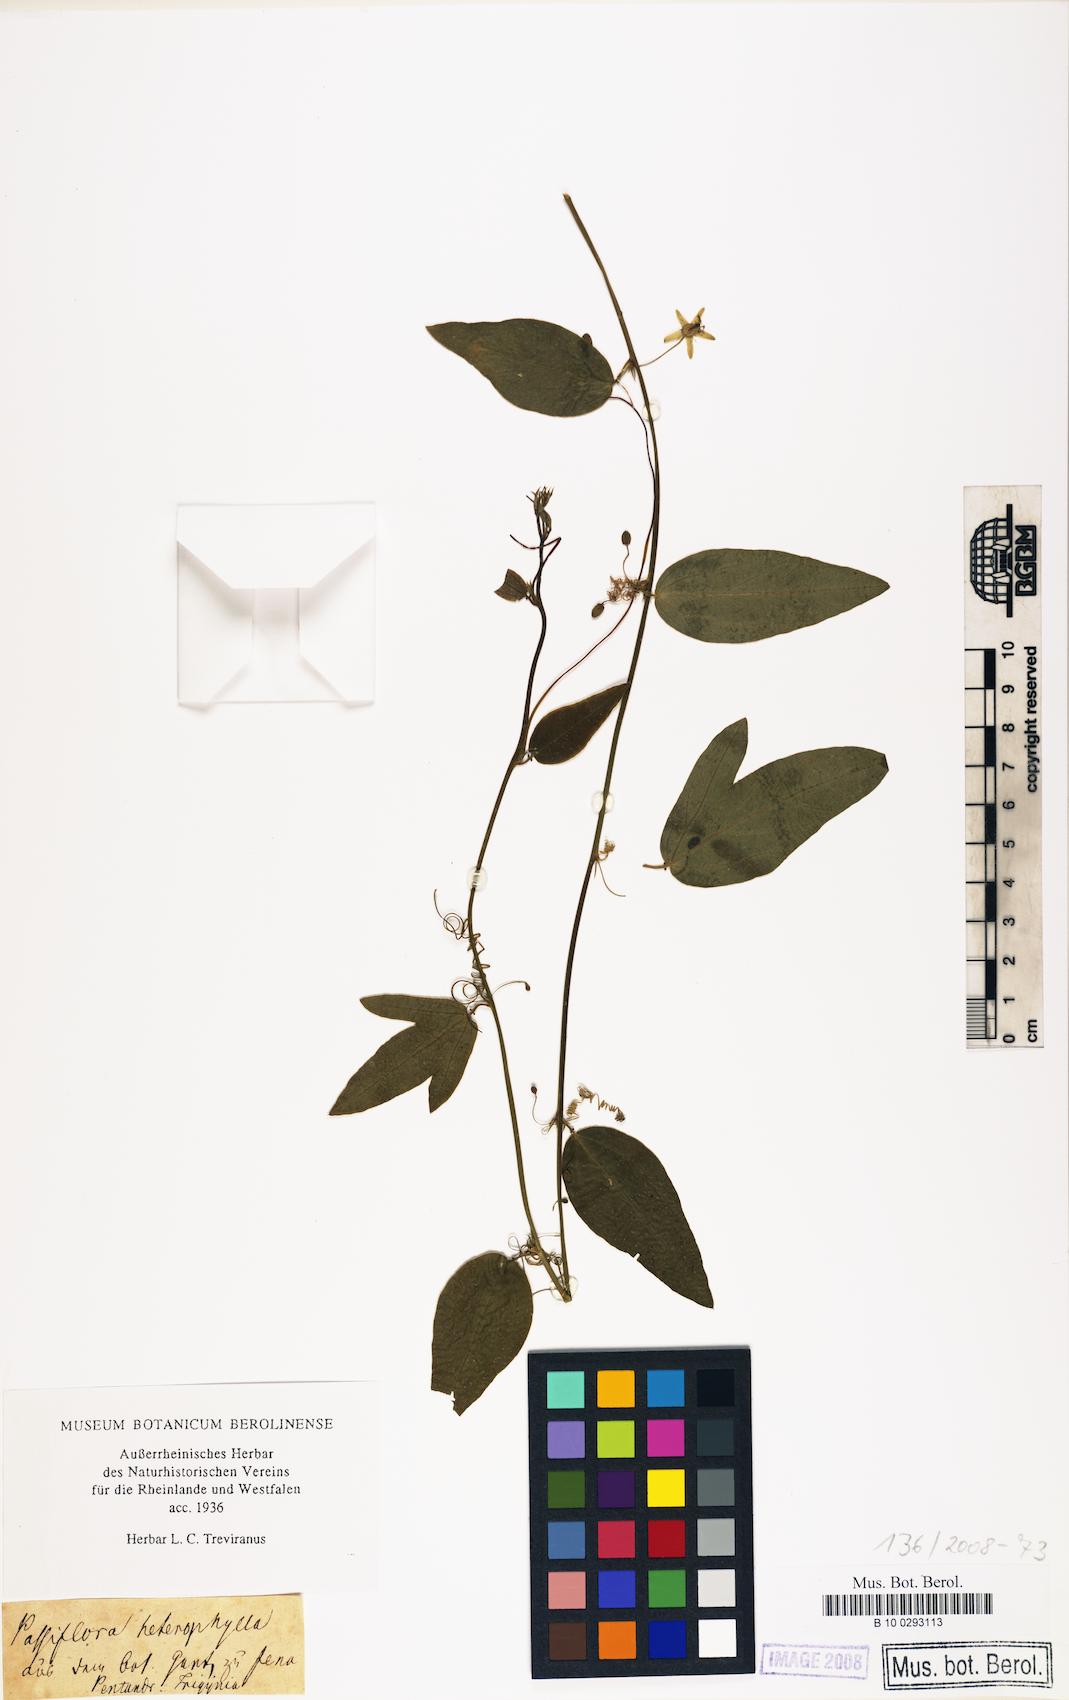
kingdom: Plantae
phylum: Tracheophyta
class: Magnoliopsida
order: Malpighiales
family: Passifloraceae
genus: Passiflora
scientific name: Passiflora pallida
